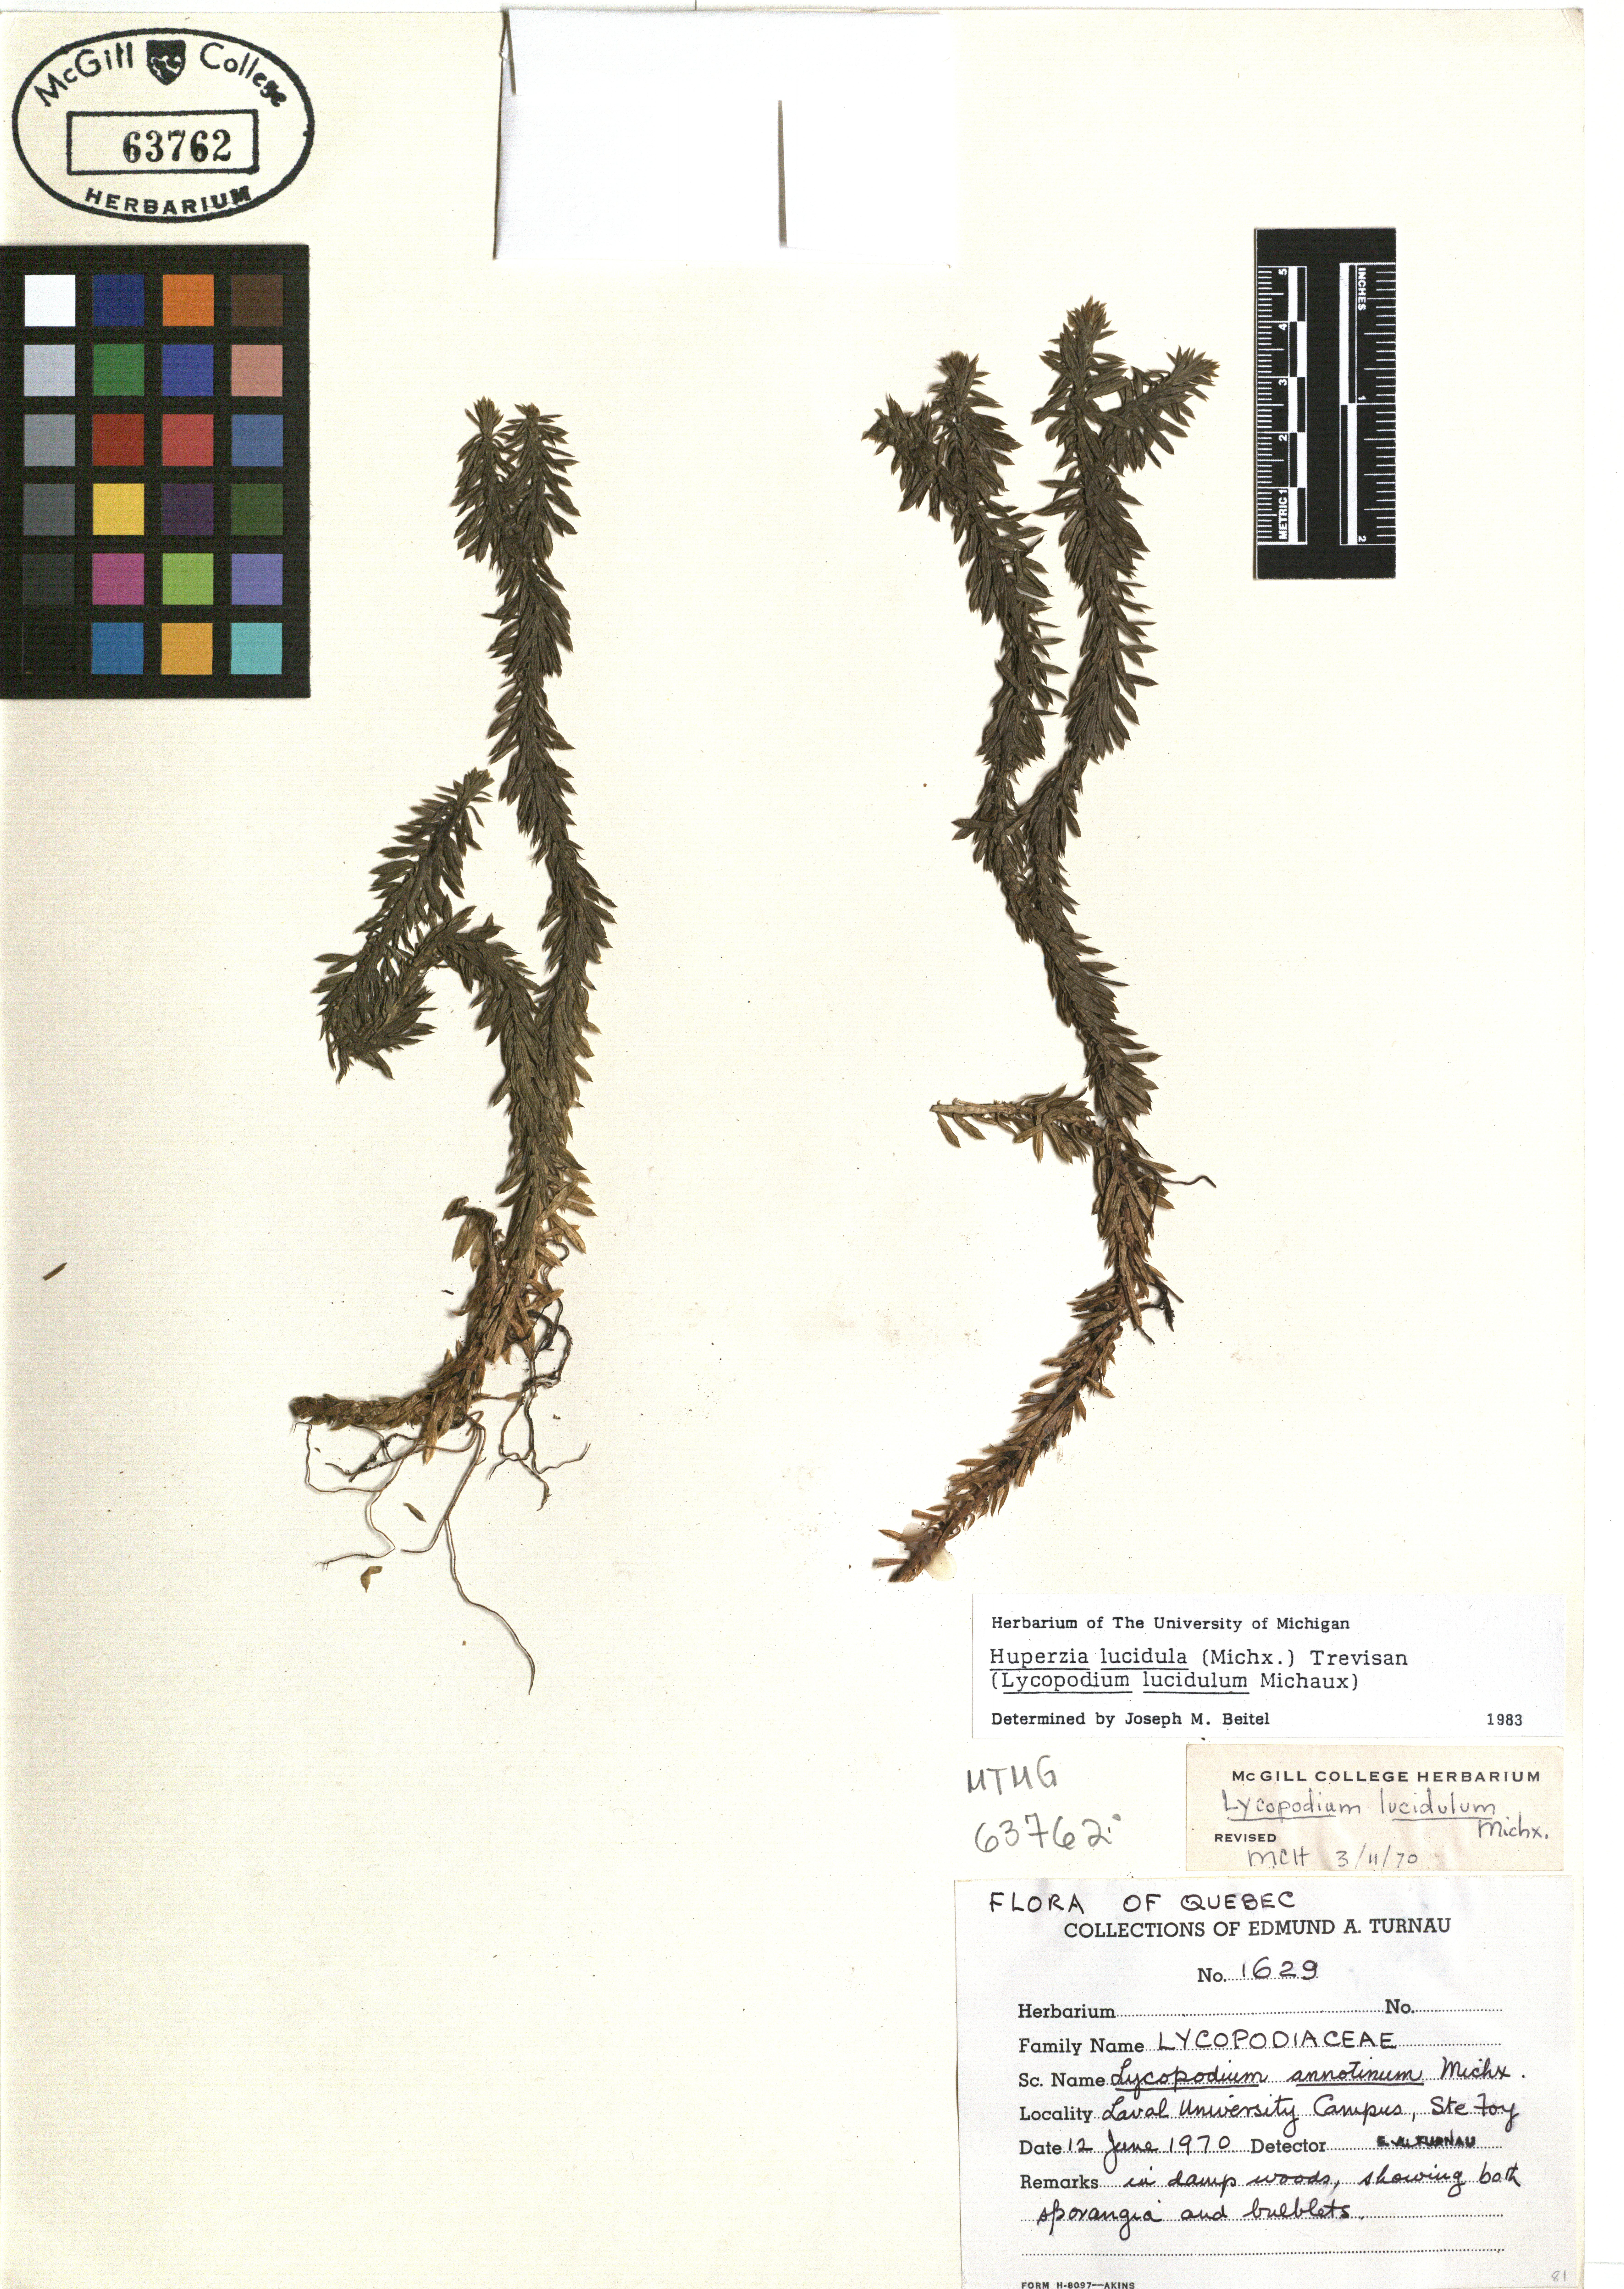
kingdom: Plantae
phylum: Tracheophyta
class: Lycopodiopsida
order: Lycopodiales
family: Lycopodiaceae
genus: Huperzia
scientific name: Huperzia lucidula
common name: Shining clubmoss
